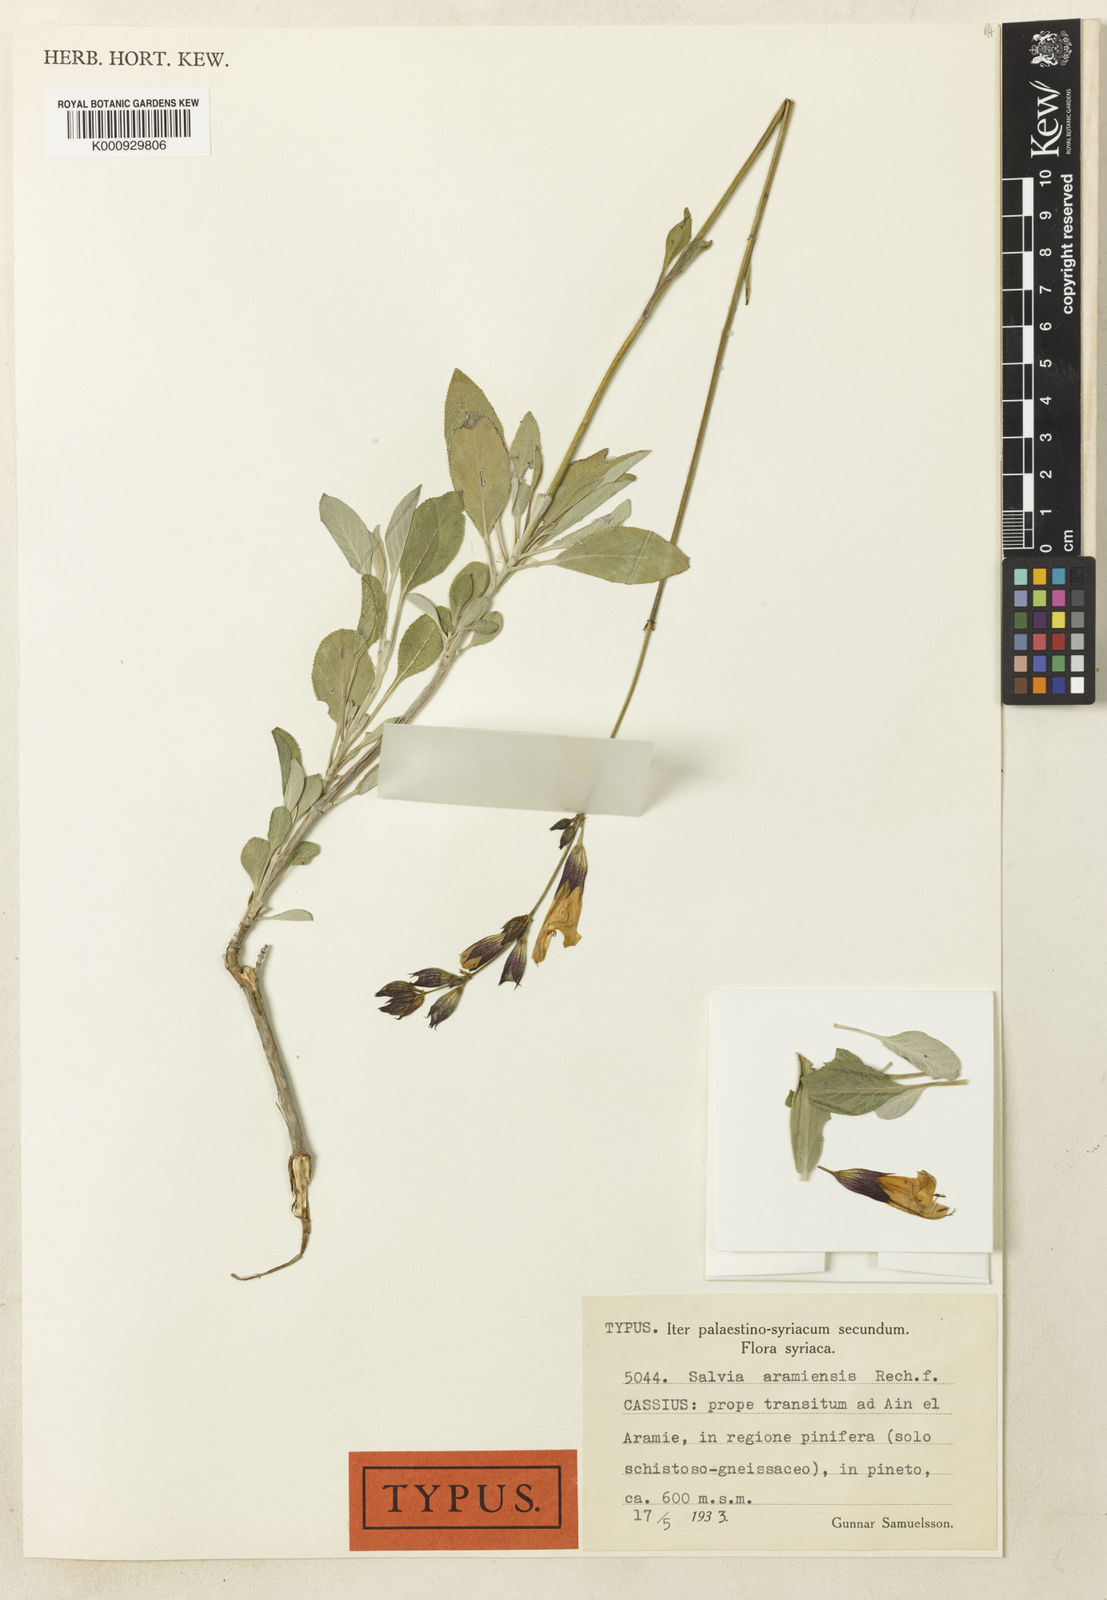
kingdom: Plantae
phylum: Tracheophyta
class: Magnoliopsida
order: Lamiales
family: Lamiaceae
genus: Salvia
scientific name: Salvia aramiensis
